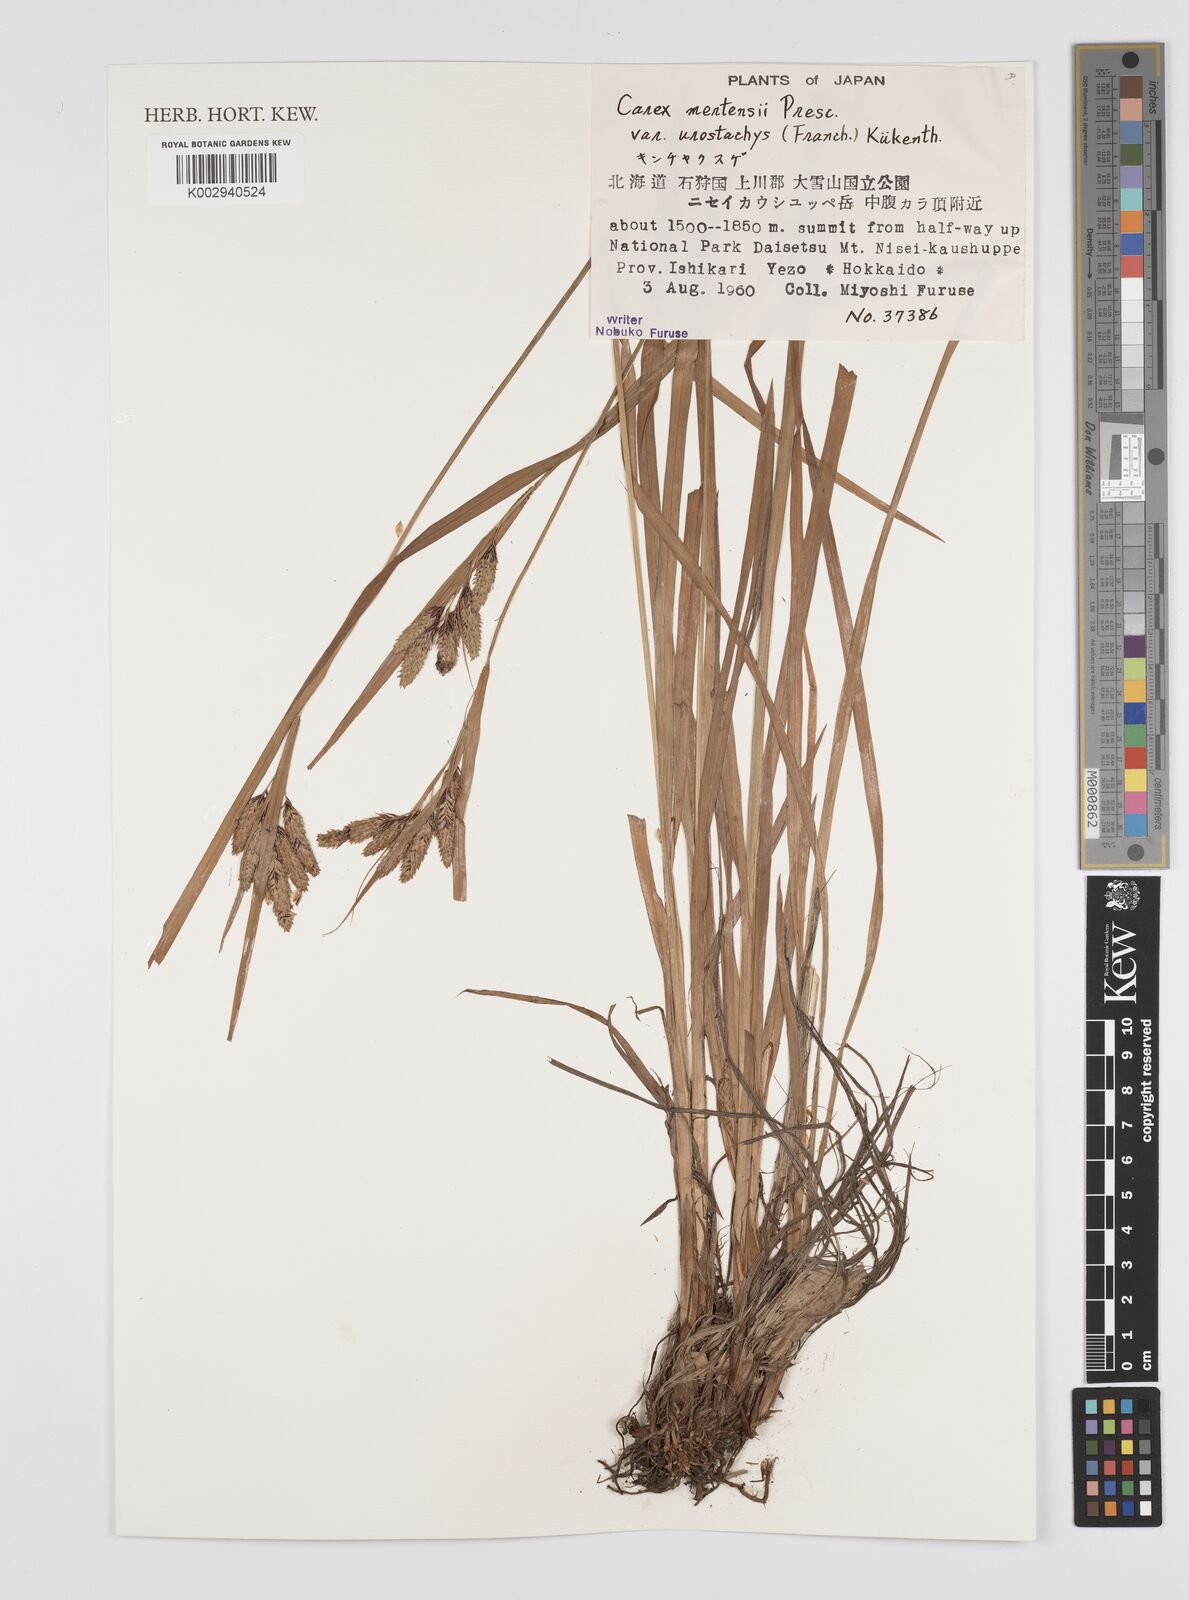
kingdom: Plantae
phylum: Tracheophyta
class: Liliopsida
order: Poales
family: Cyperaceae
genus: Carex
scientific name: Carex mertensii
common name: Mertens' sedge
